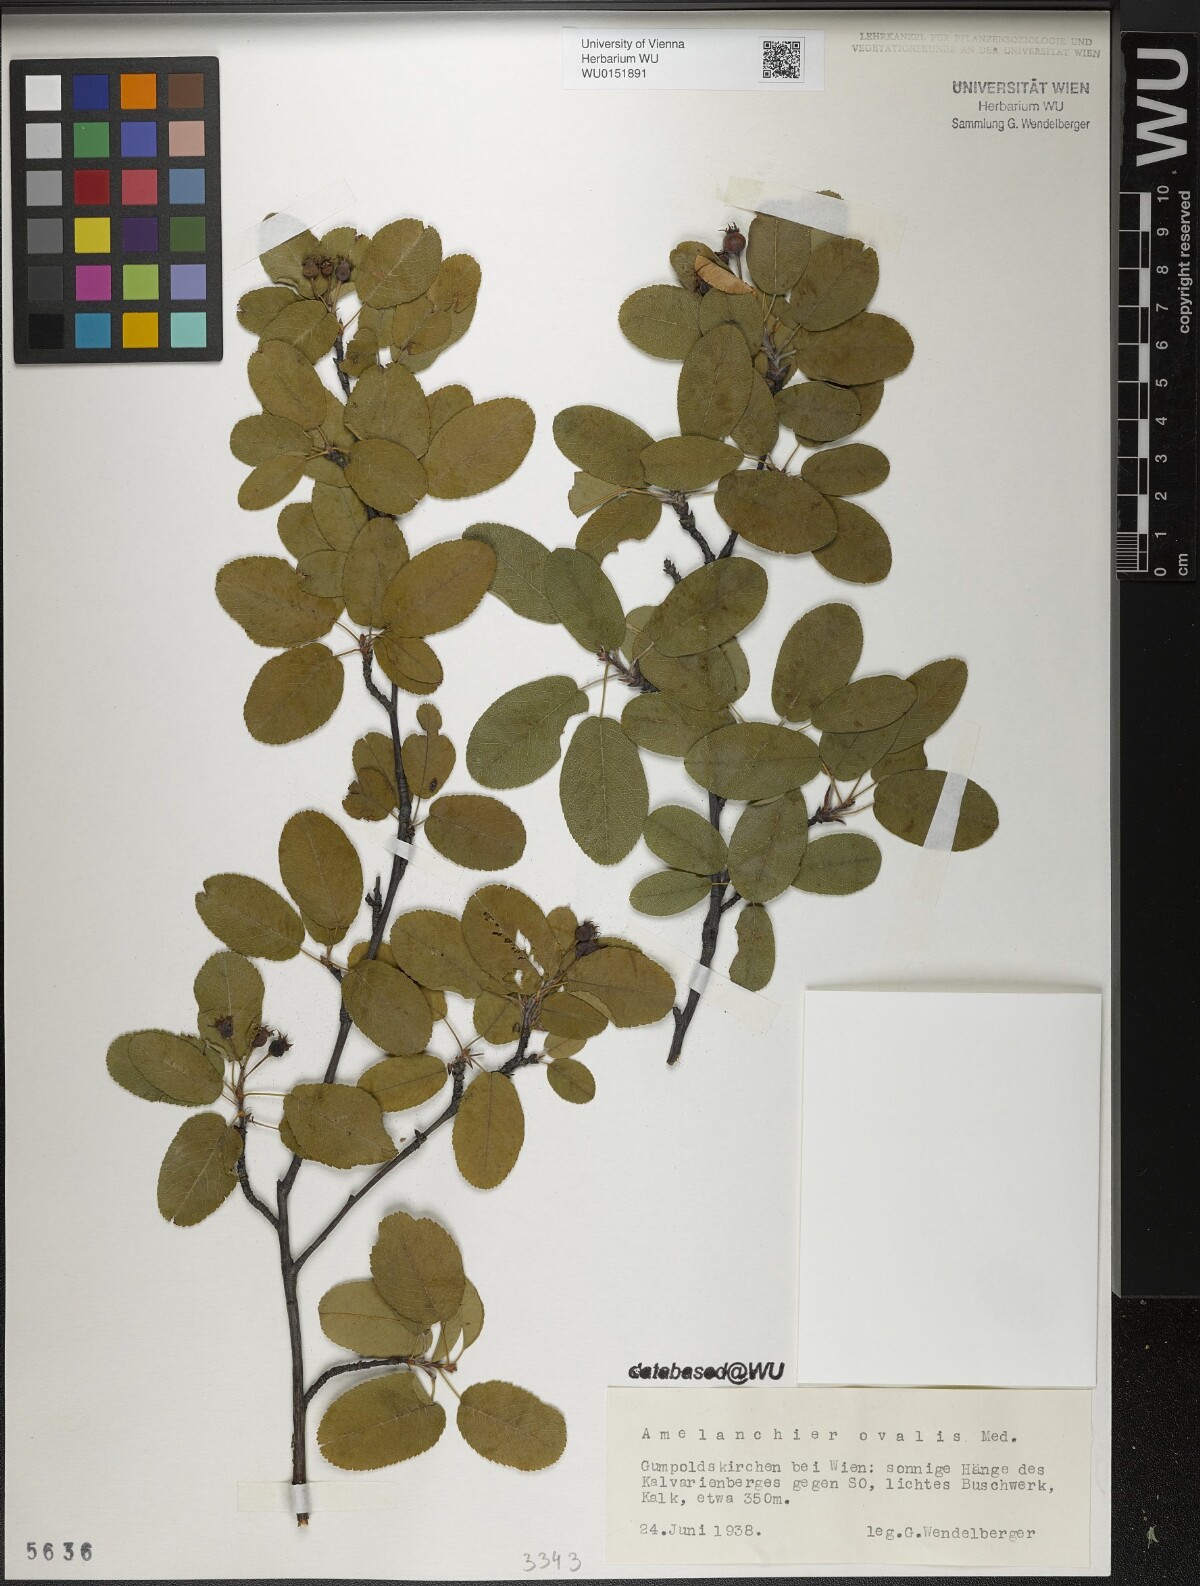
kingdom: Plantae
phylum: Tracheophyta
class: Magnoliopsida
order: Rosales
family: Rosaceae
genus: Amelanchier
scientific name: Amelanchier ovalis
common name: Serviceberry
